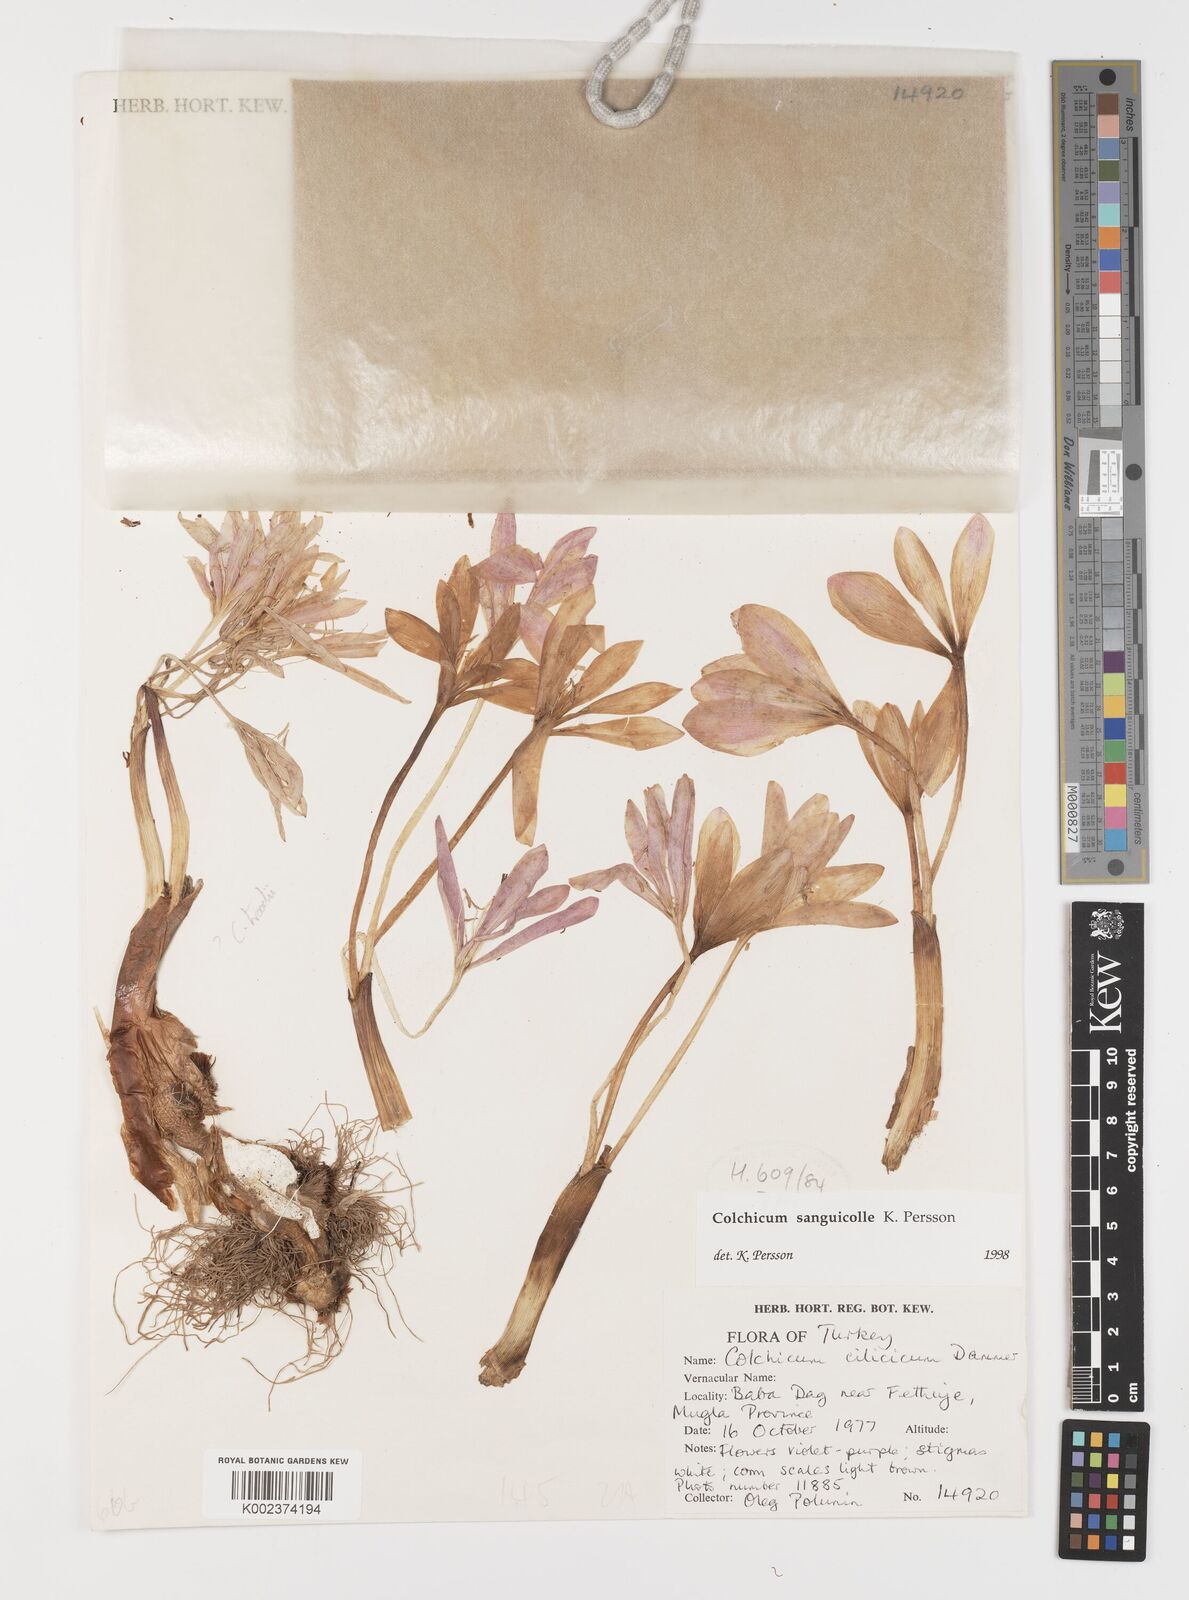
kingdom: Plantae
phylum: Tracheophyta
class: Liliopsida
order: Liliales
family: Colchicaceae
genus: Colchicum
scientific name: Colchicum sanguicolle
